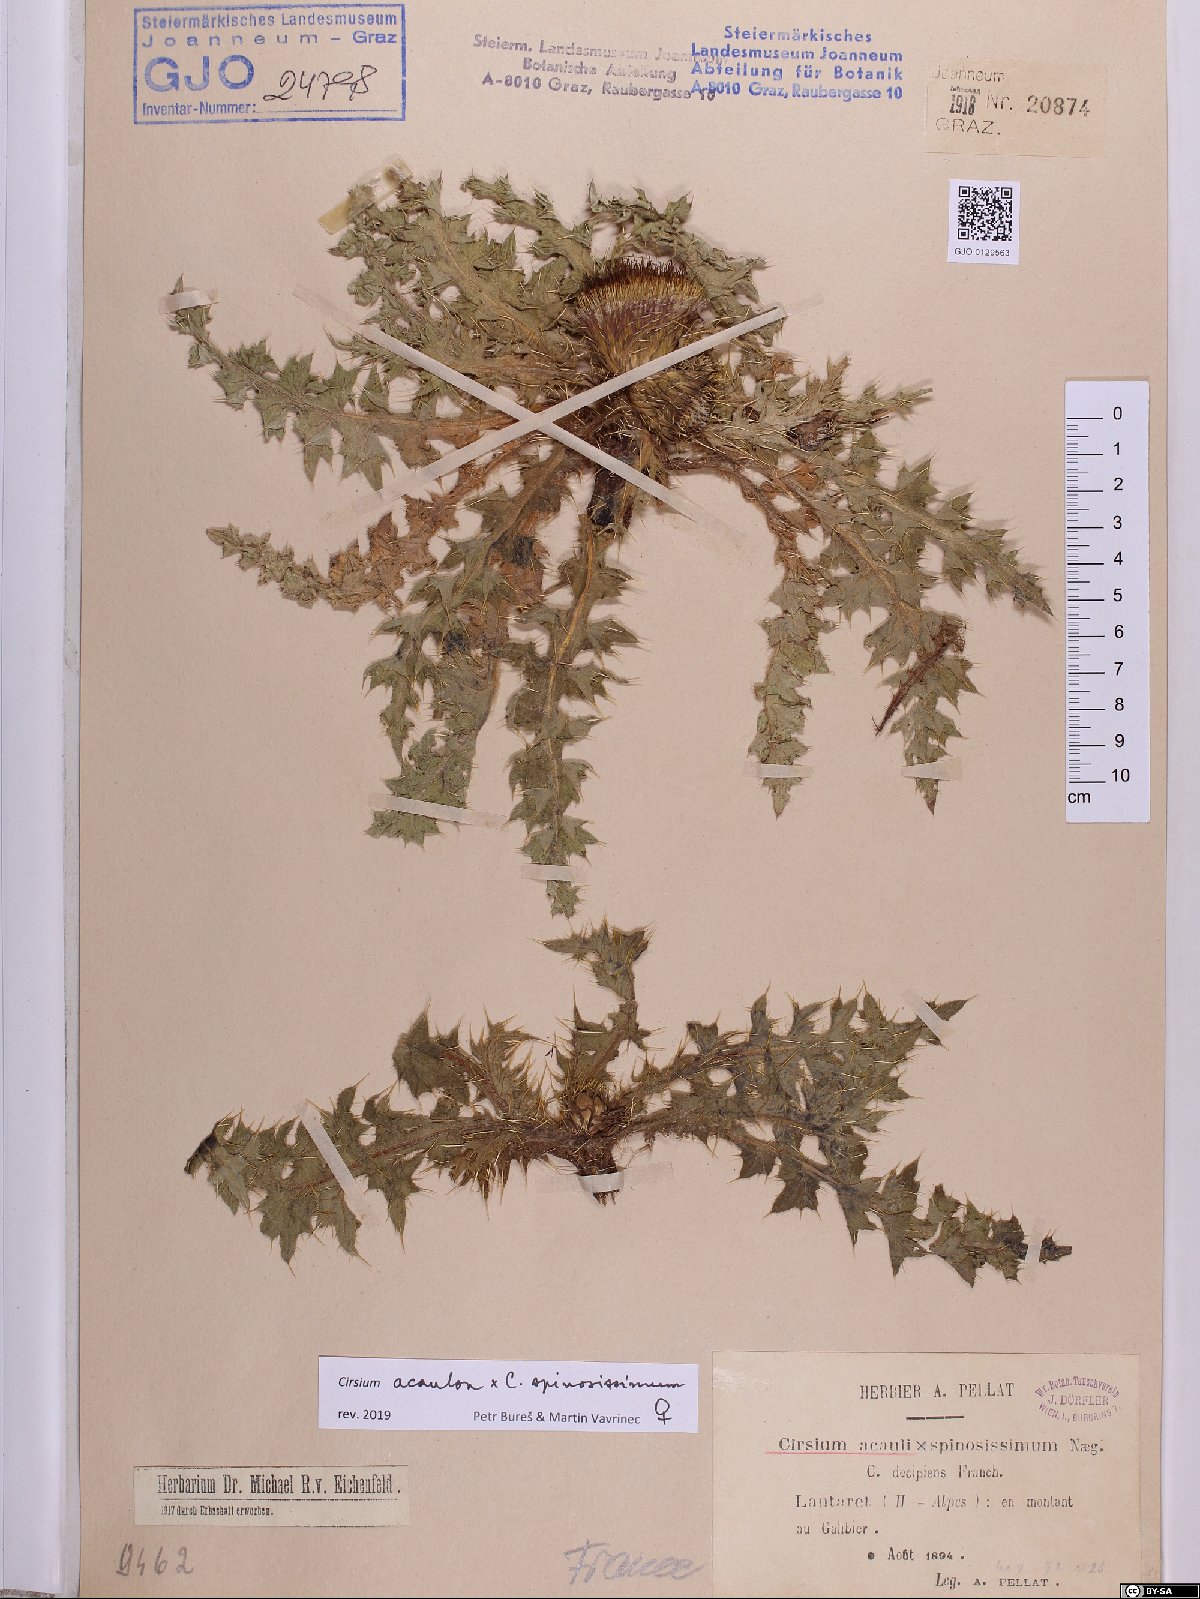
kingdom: Plantae
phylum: Tracheophyta
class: Magnoliopsida
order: Asterales
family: Asteraceae
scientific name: Asteraceae
